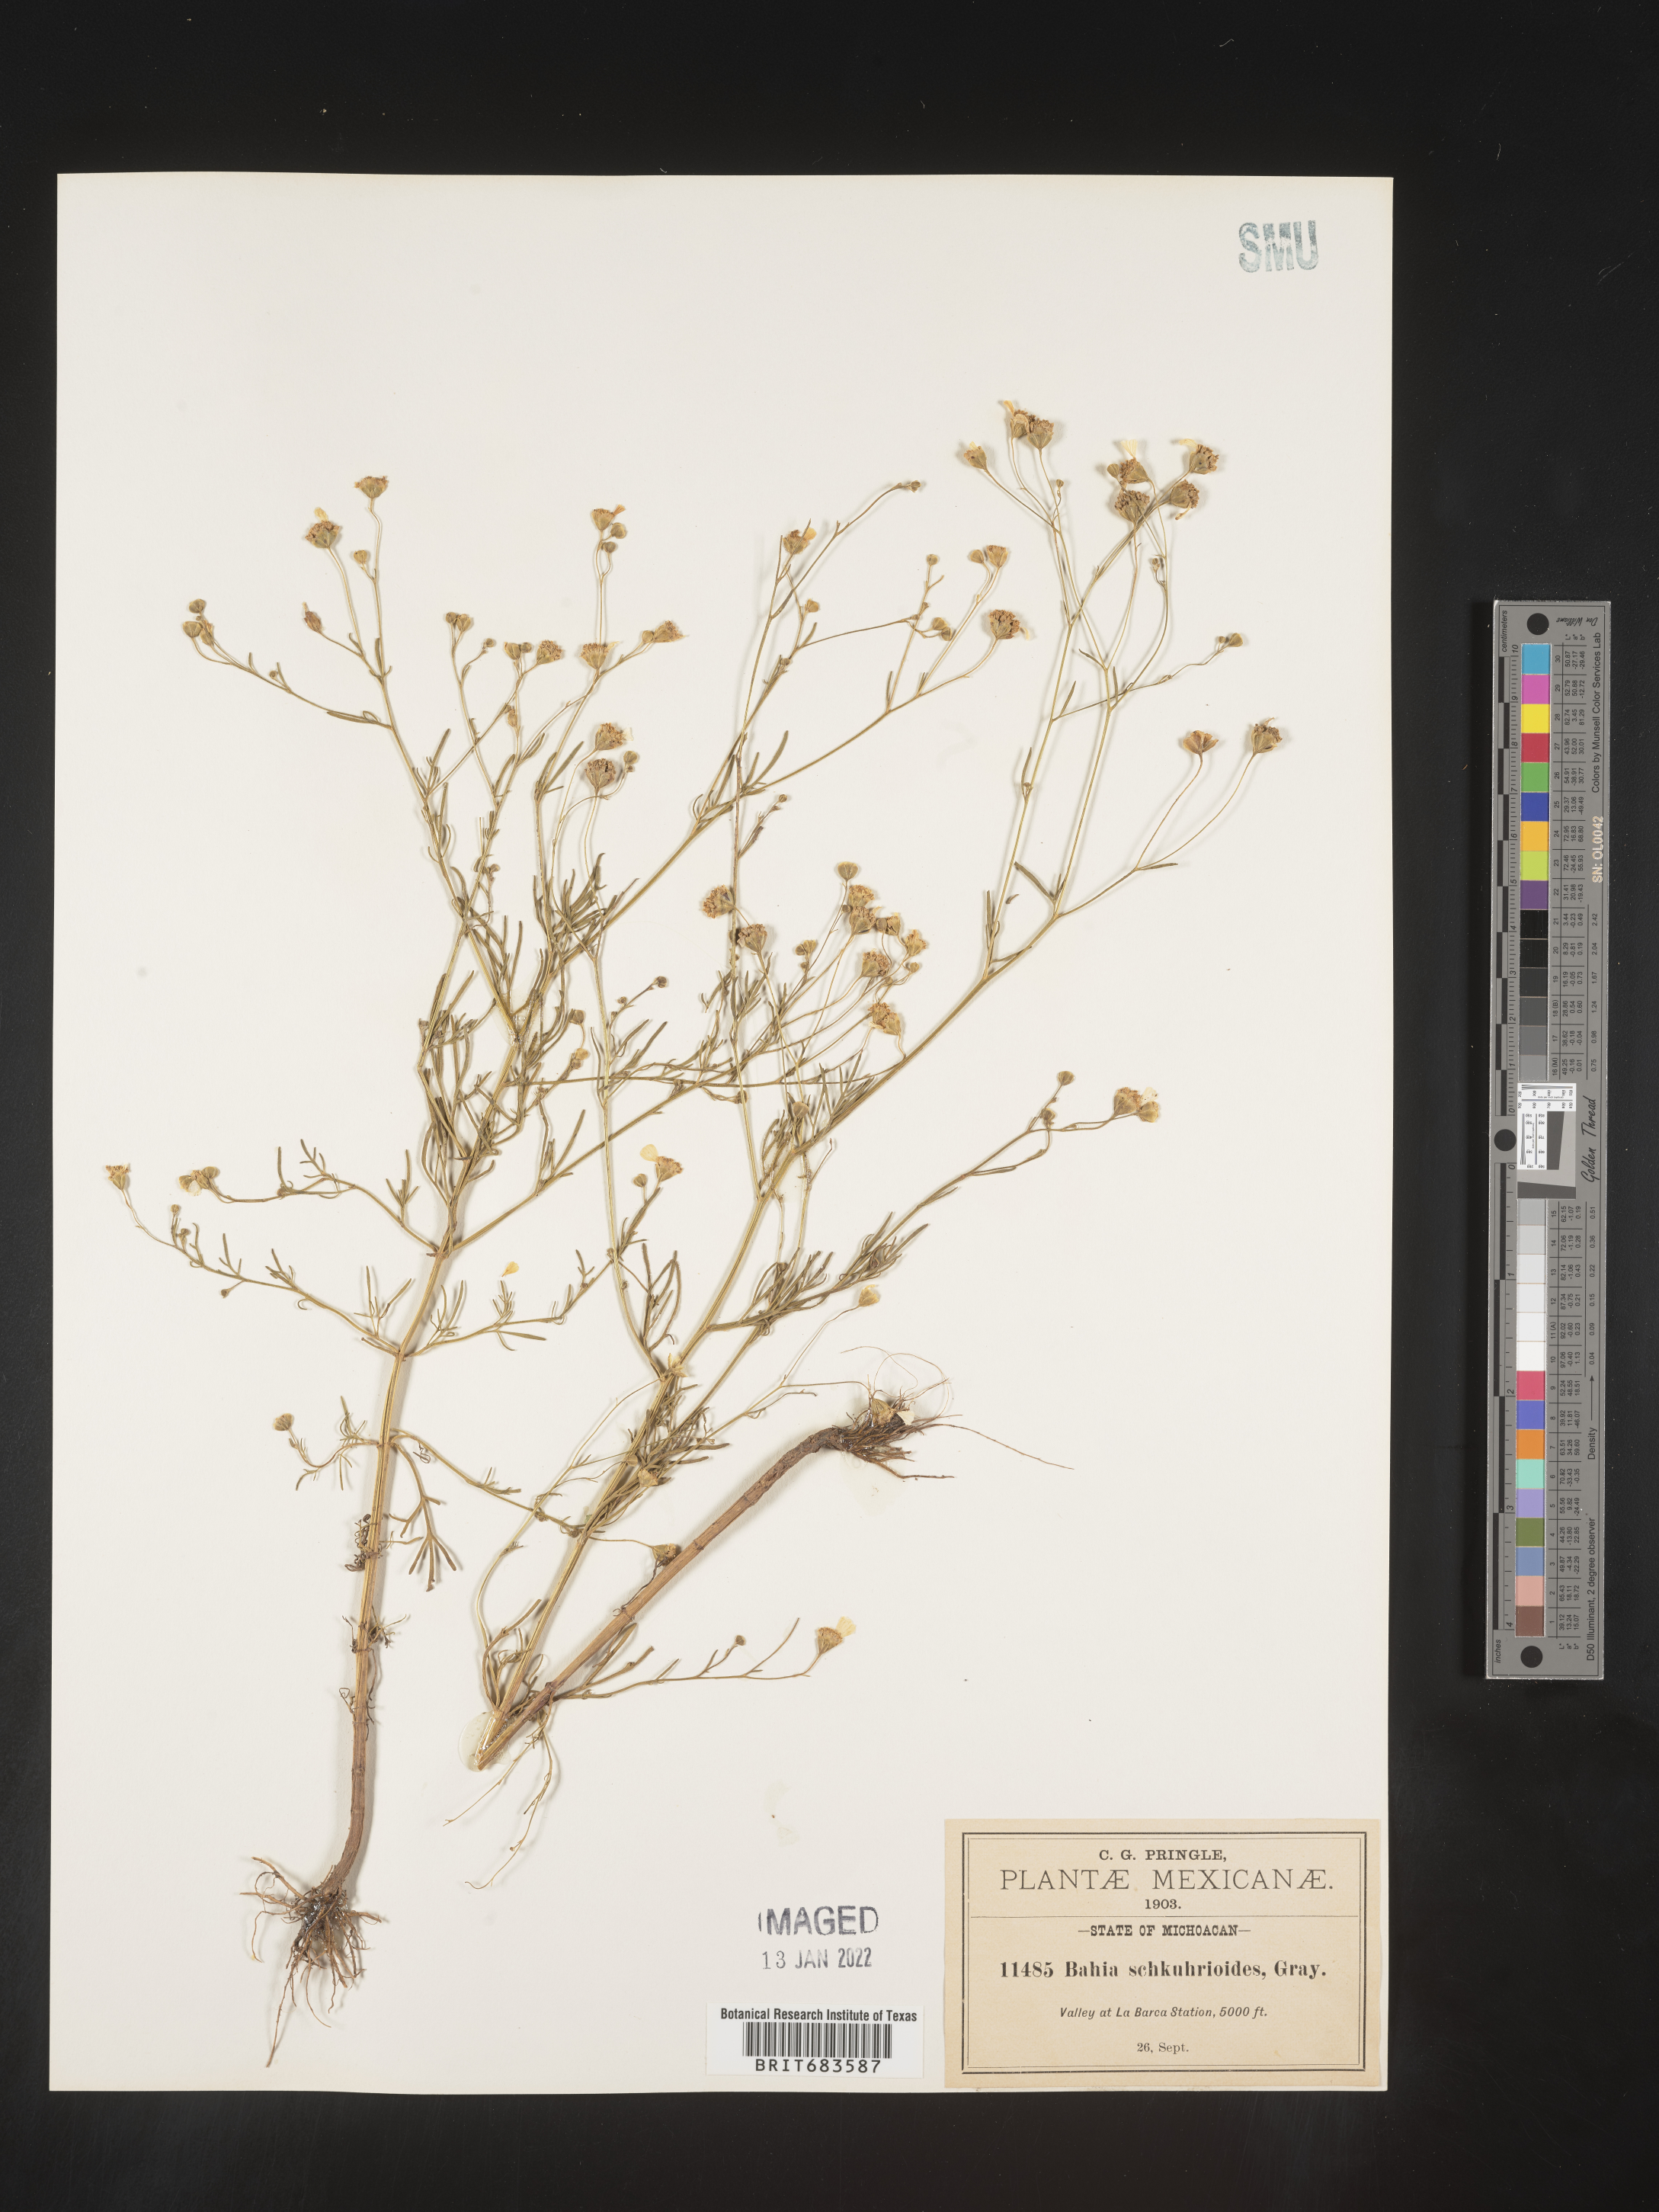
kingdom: Plantae
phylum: Tracheophyta
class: Magnoliopsida
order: Asterales
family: Asteraceae
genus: Bahia
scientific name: Bahia
